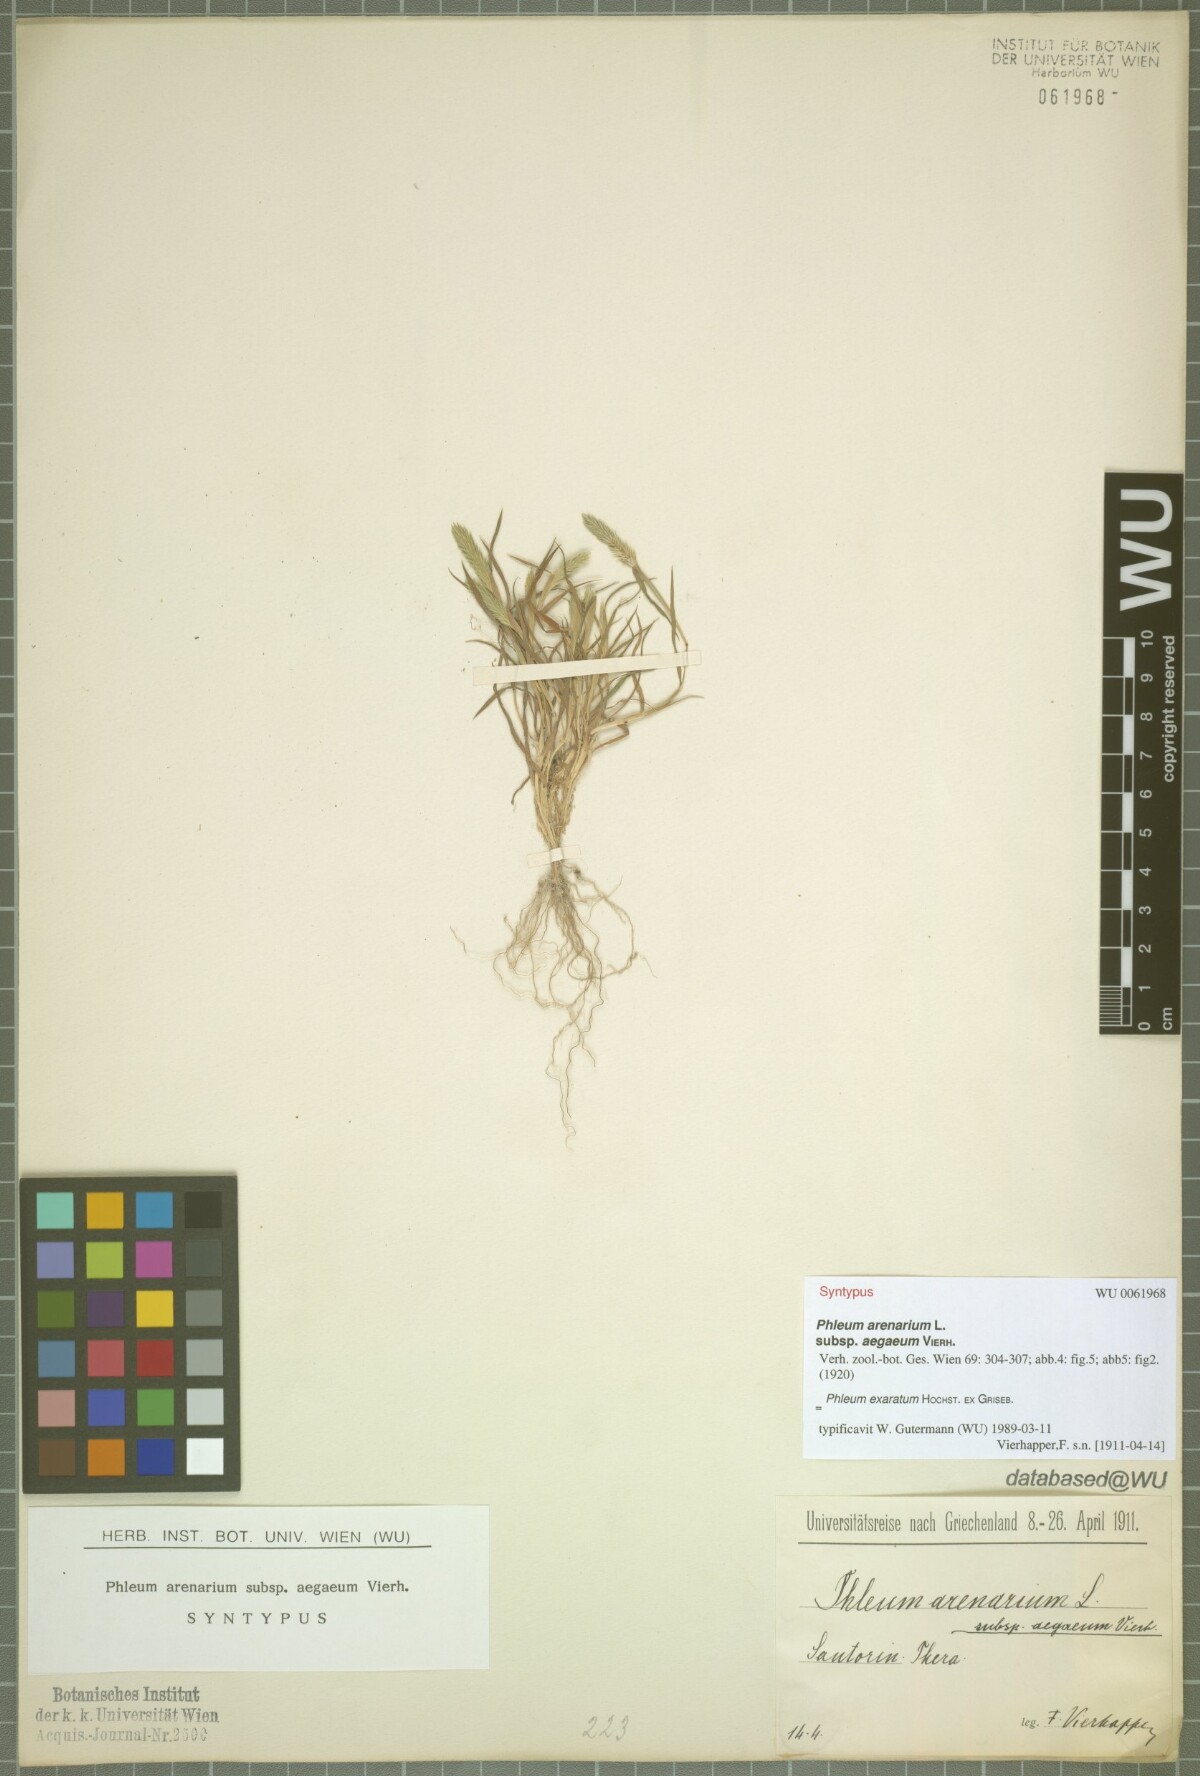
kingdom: Plantae
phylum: Tracheophyta
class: Liliopsida
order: Poales
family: Poaceae
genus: Phleum
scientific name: Phleum exaratum
